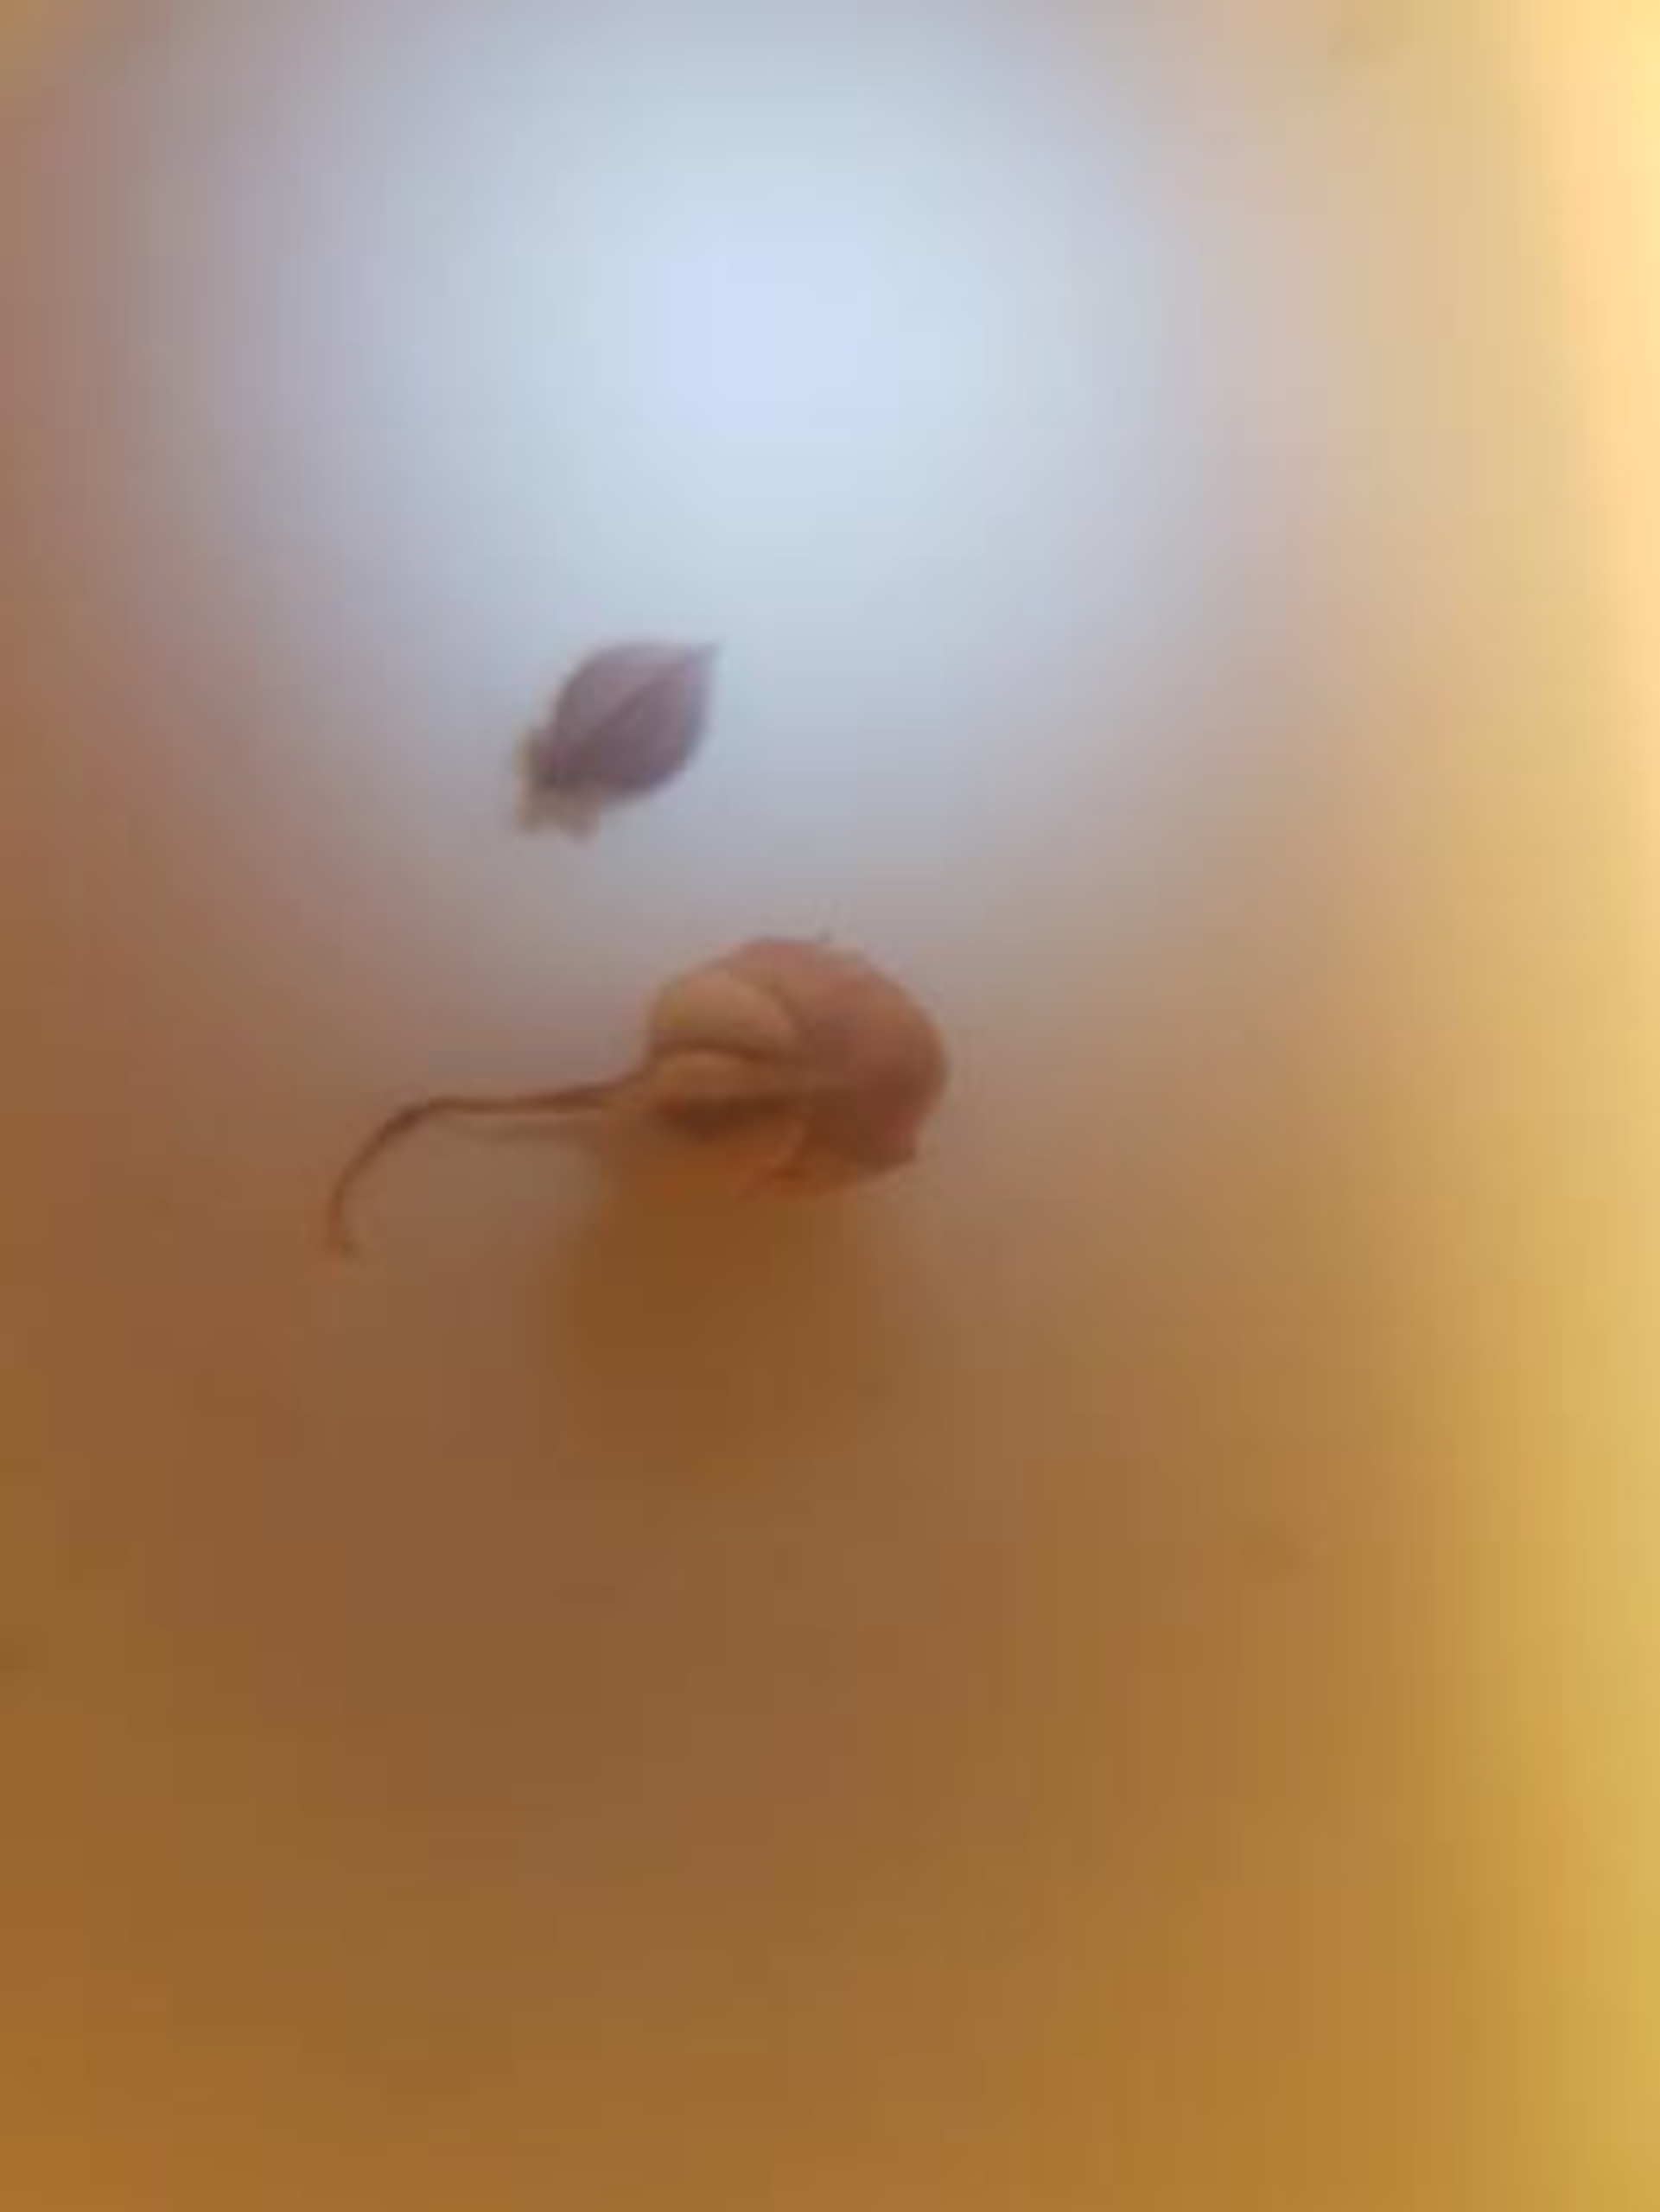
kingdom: Plantae
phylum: Tracheophyta
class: Magnoliopsida
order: Caryophyllales
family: Polygonaceae
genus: Rumex
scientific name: Rumex crispus
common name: Kruset skræppe
